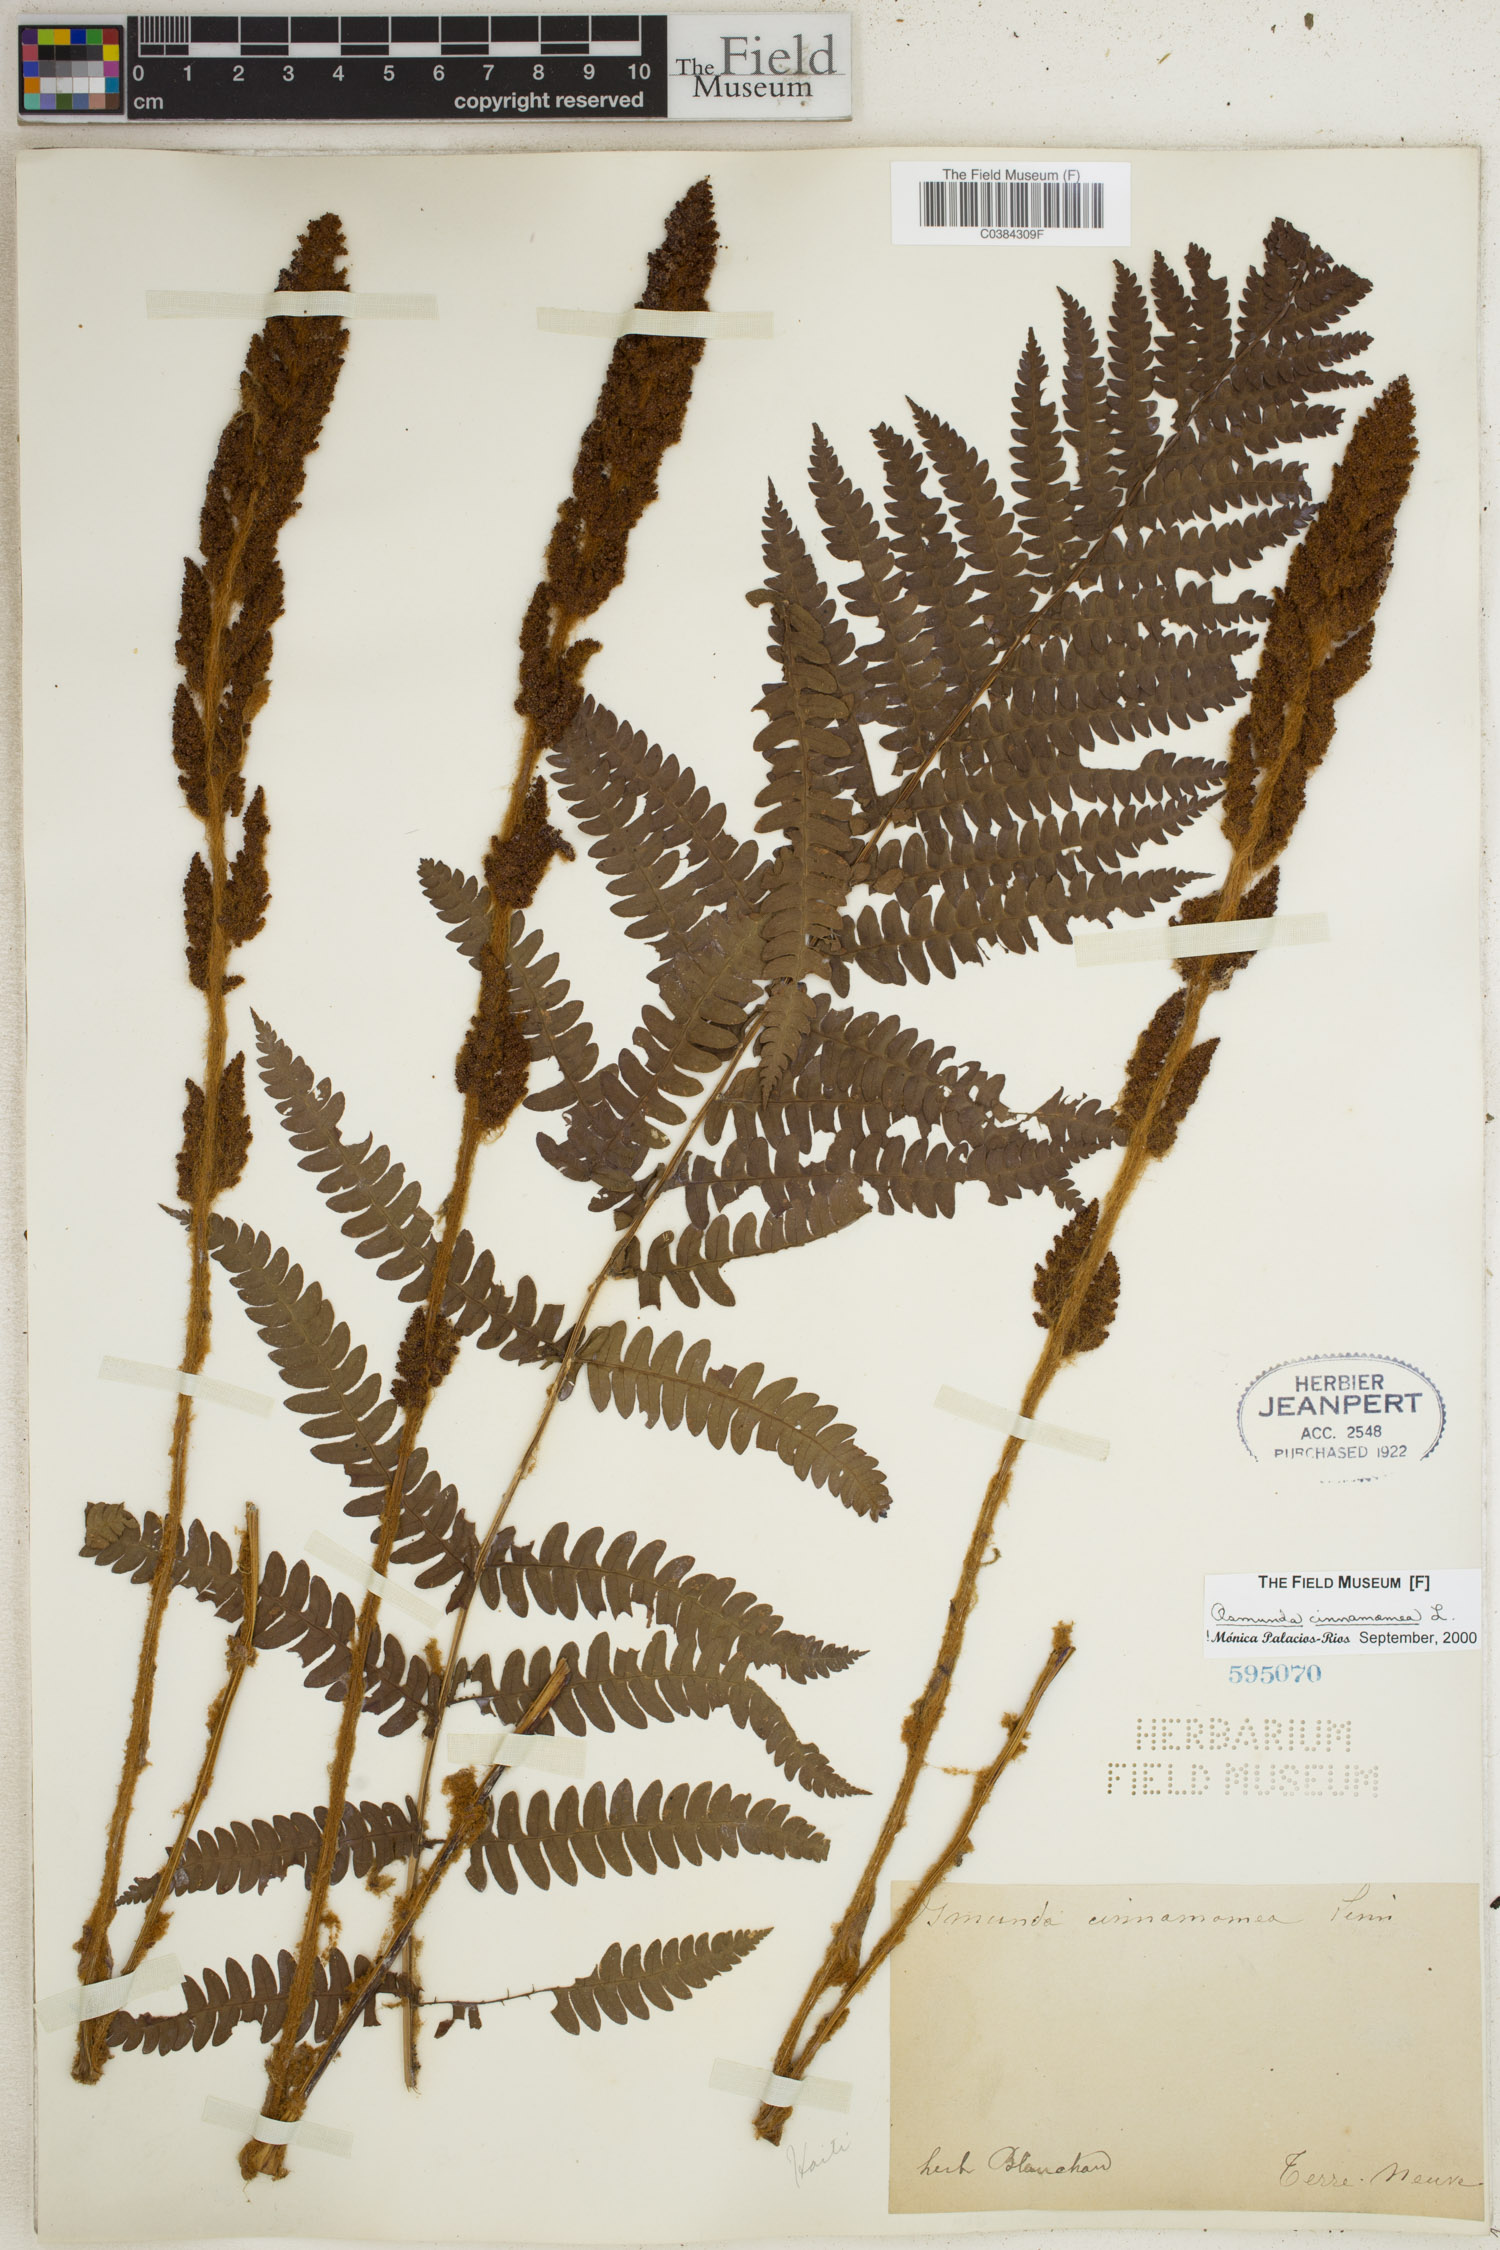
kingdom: Plantae
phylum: Tracheophyta
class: Polypodiopsida
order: Osmundales
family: Osmundaceae
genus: Osmundastrum
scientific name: Osmundastrum cinnamomeum
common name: Cinnamon fern
